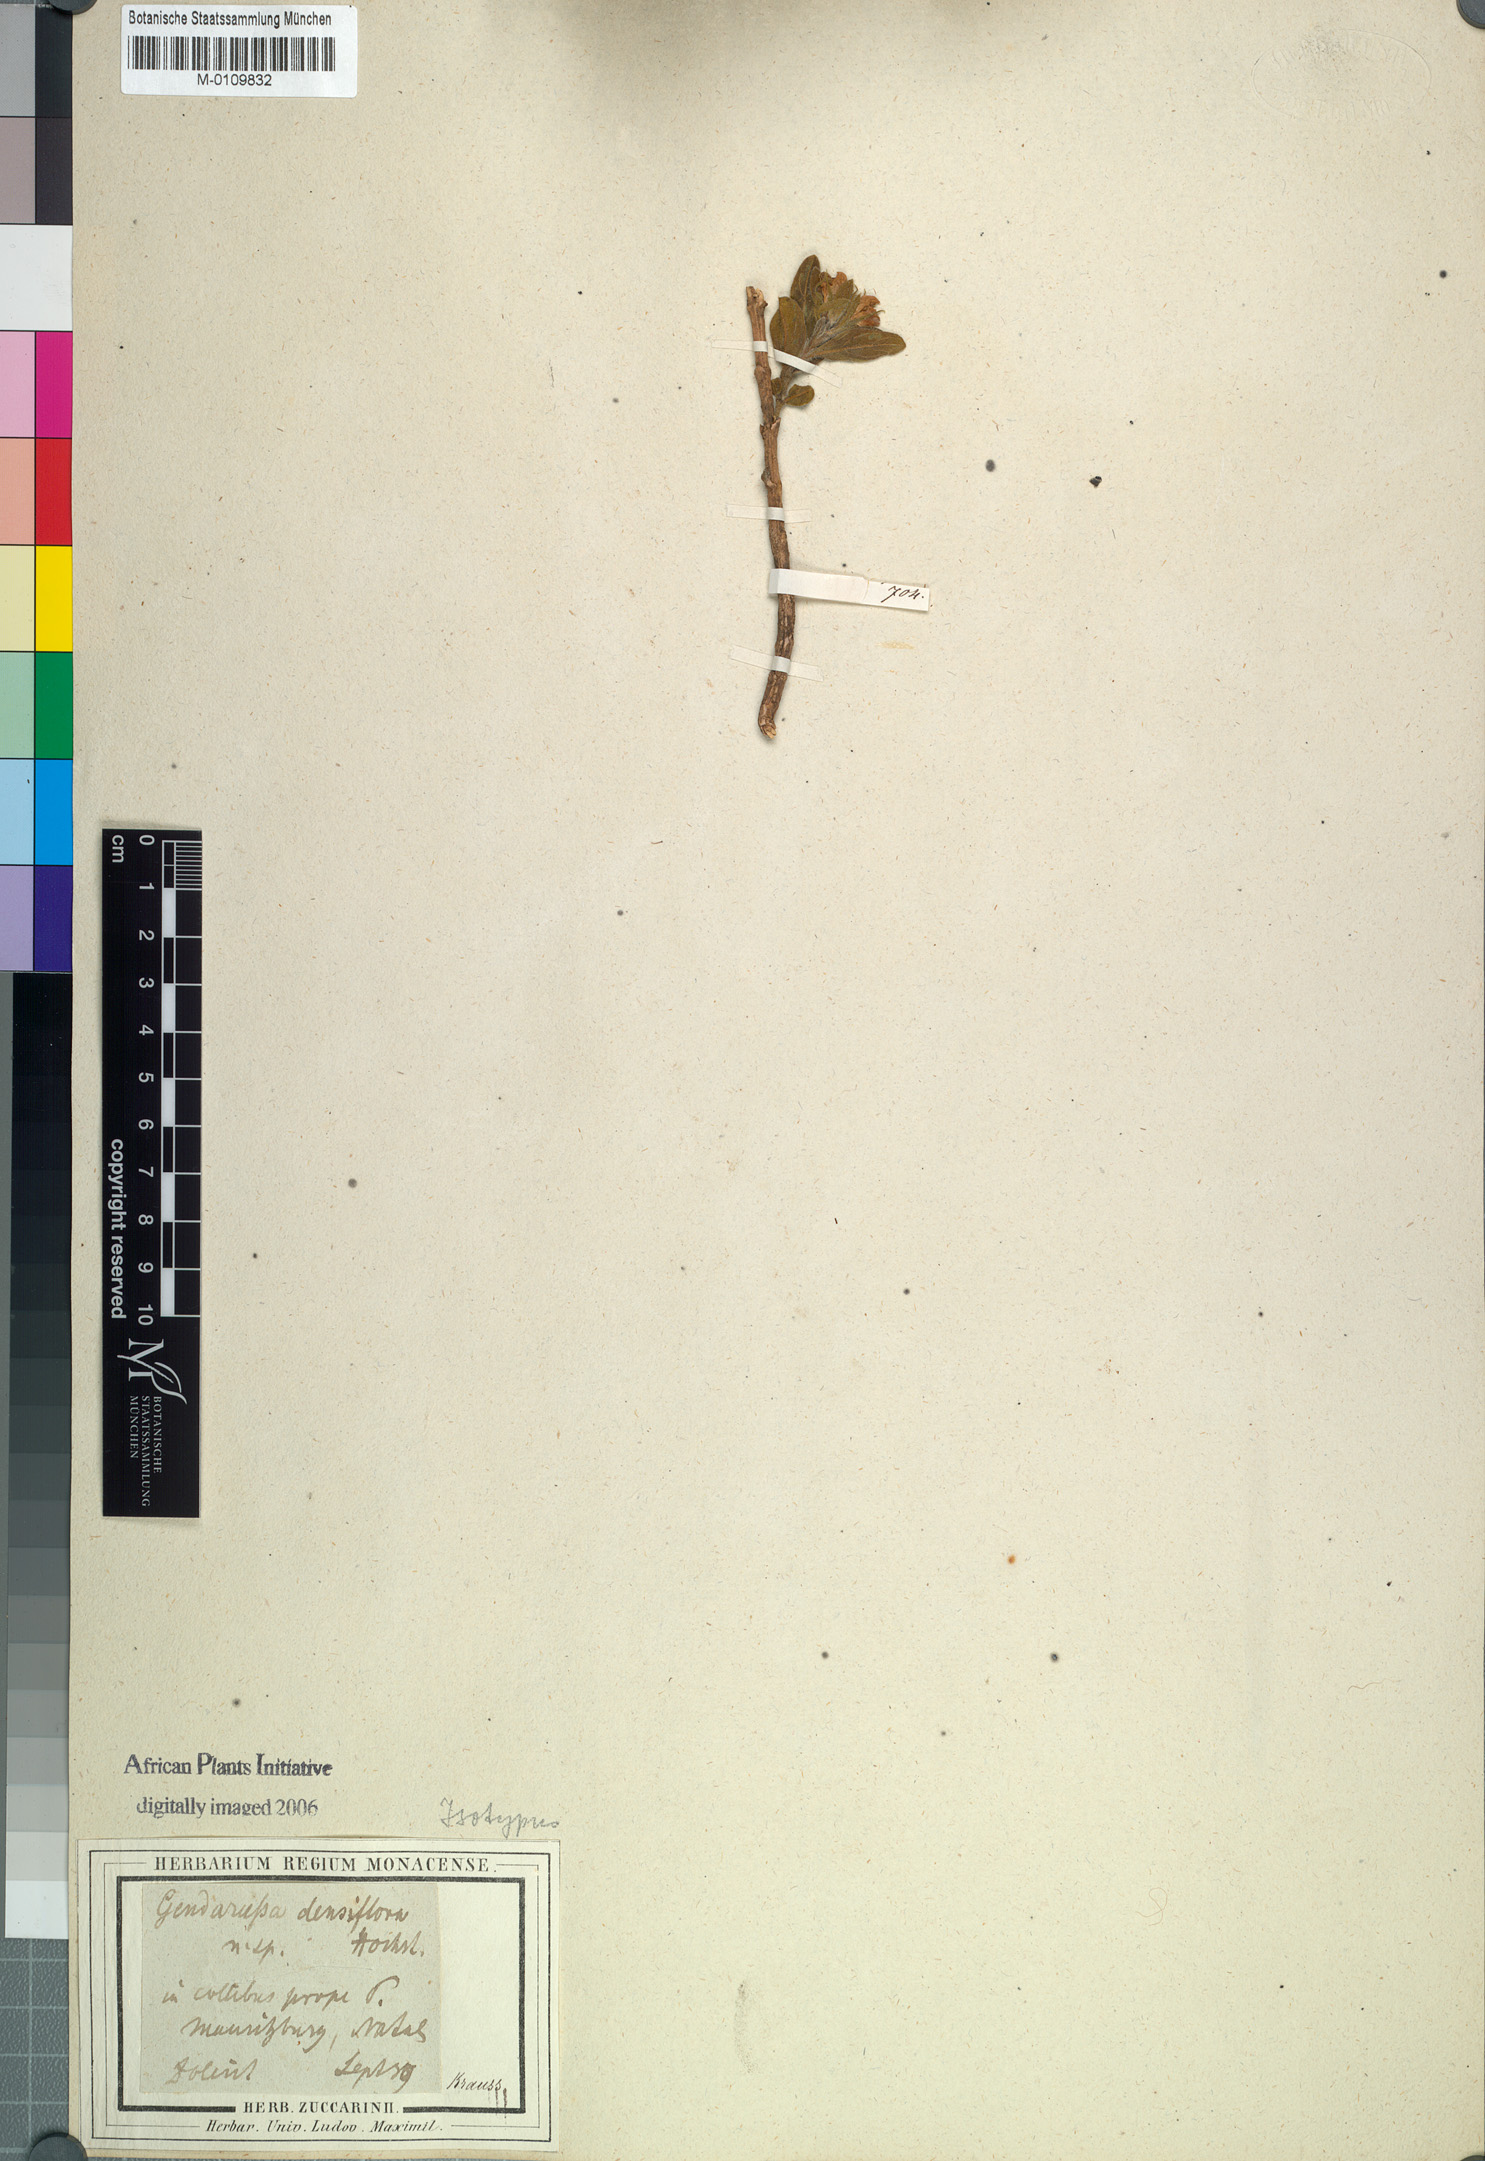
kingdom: Plantae
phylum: Tracheophyta
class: Magnoliopsida
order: Lamiales
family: Acanthaceae
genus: Monechma
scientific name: Monechma salsola
